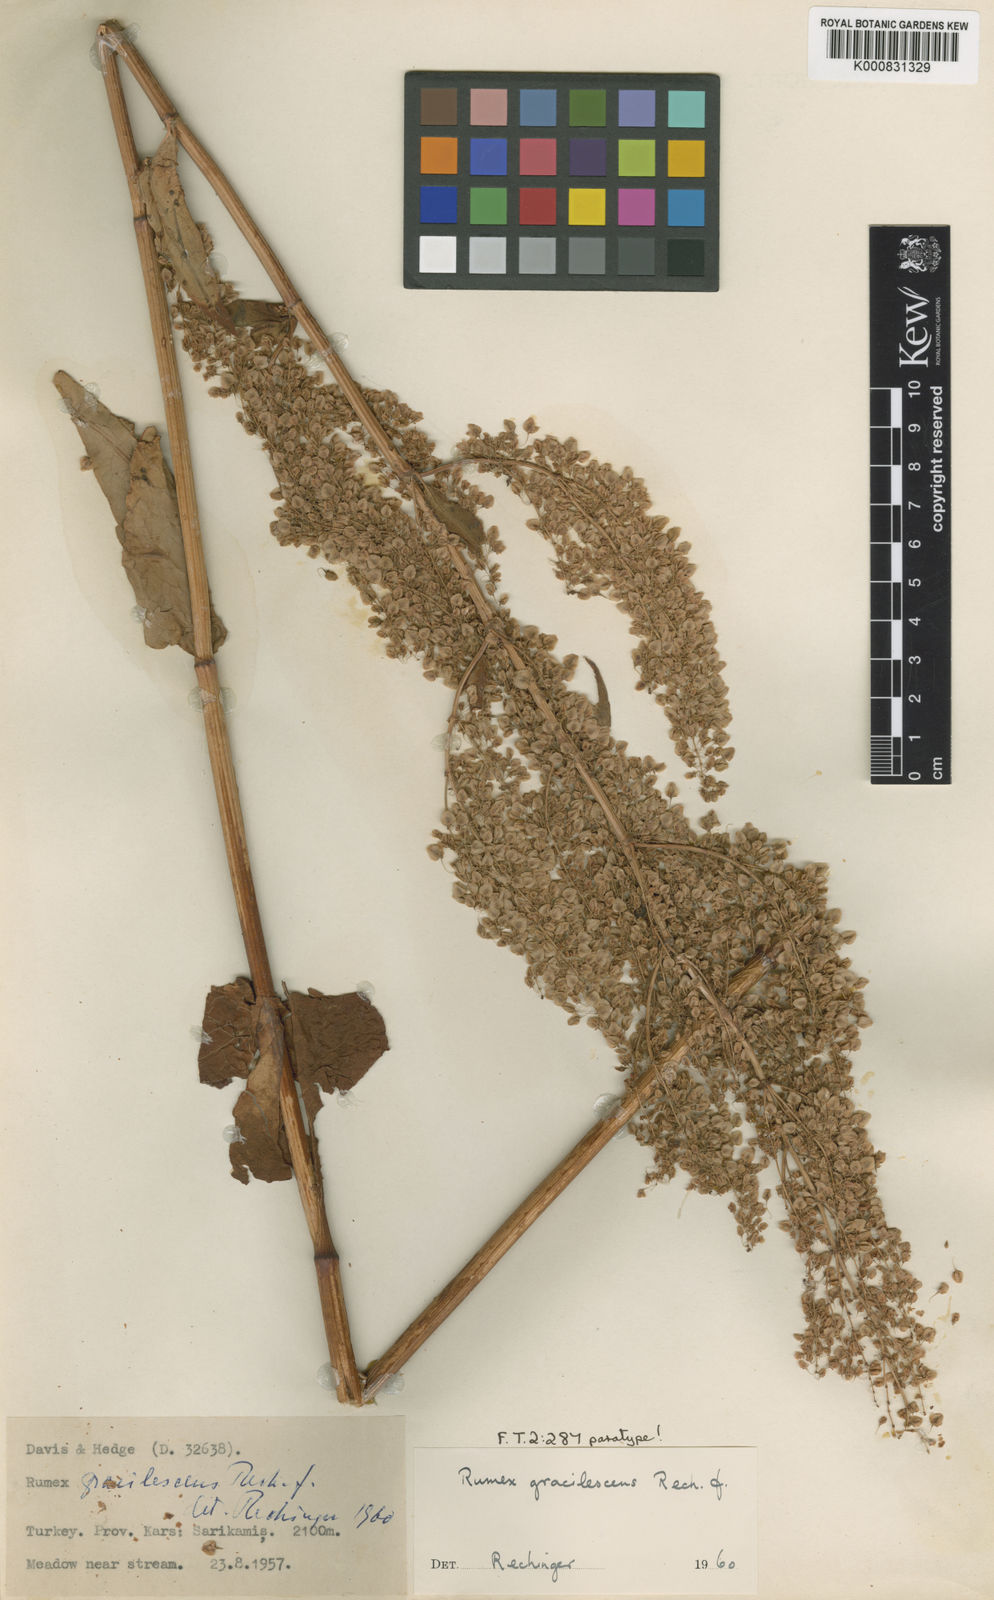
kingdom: Plantae
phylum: Tracheophyta
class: Magnoliopsida
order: Caryophyllales
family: Polygonaceae
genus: Rumex
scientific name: Rumex gracilescens
